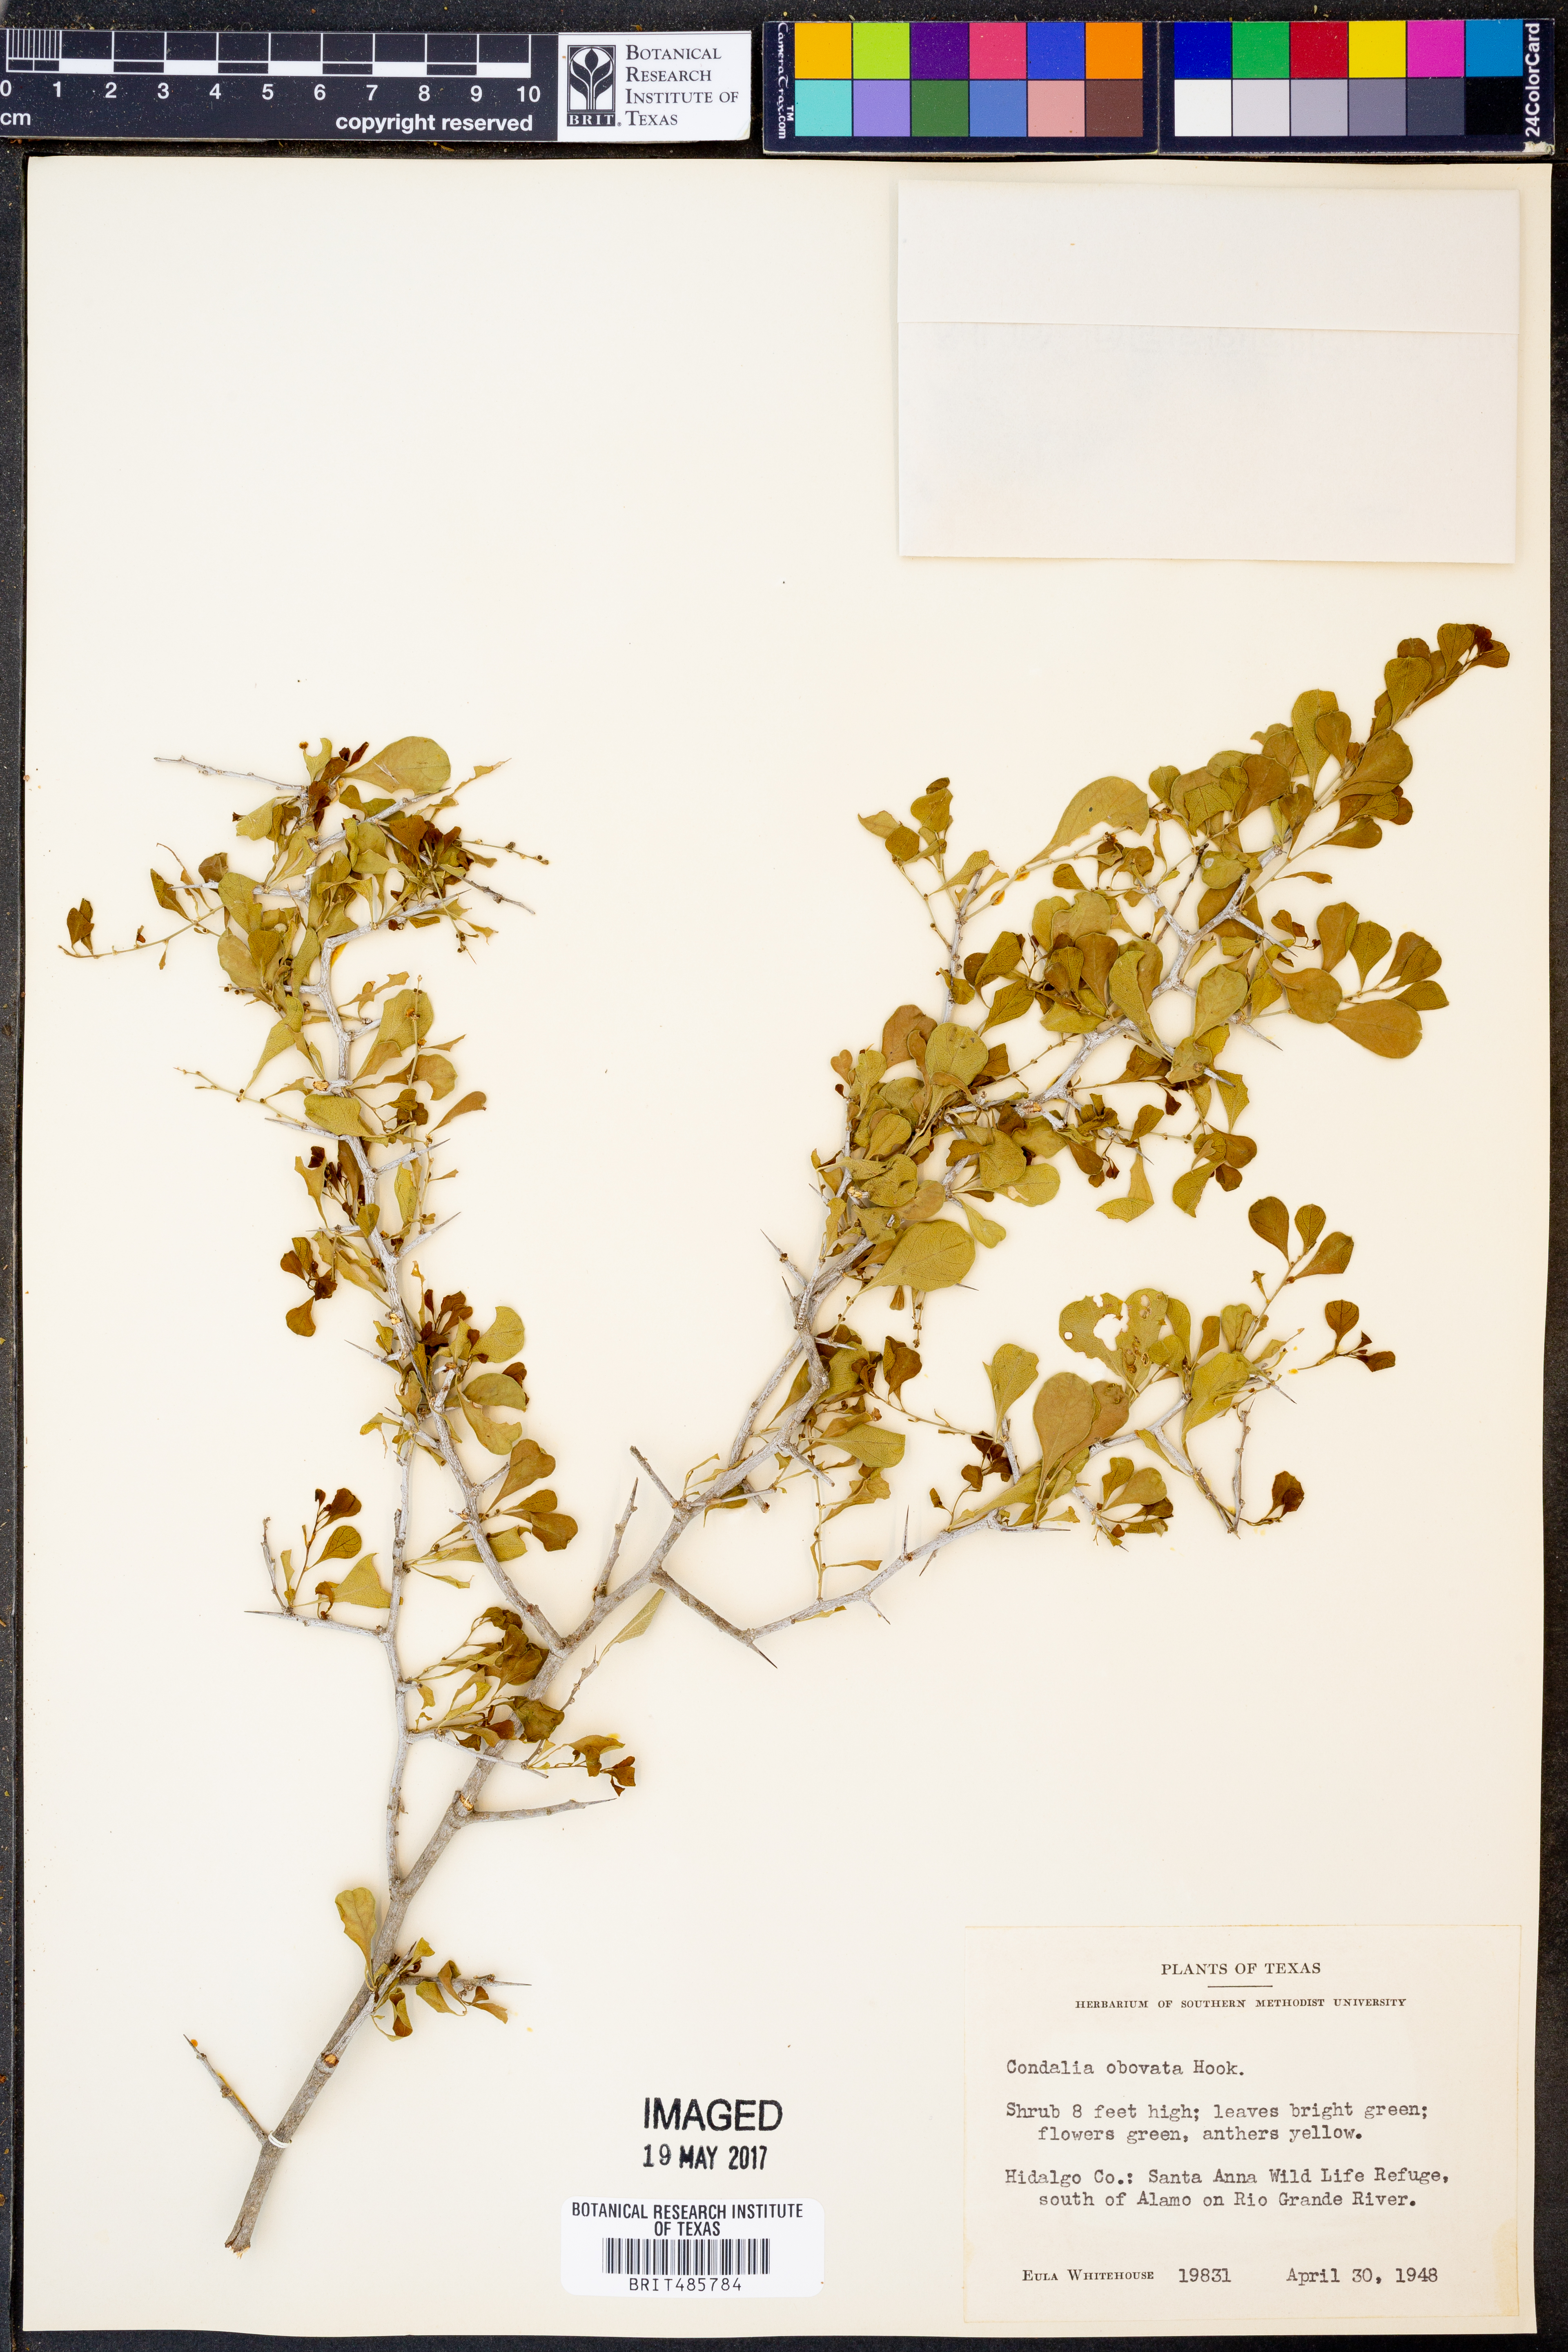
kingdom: Plantae
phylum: Tracheophyta
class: Magnoliopsida
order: Rosales
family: Rhamnaceae
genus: Condalia
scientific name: Condalia hookeri
